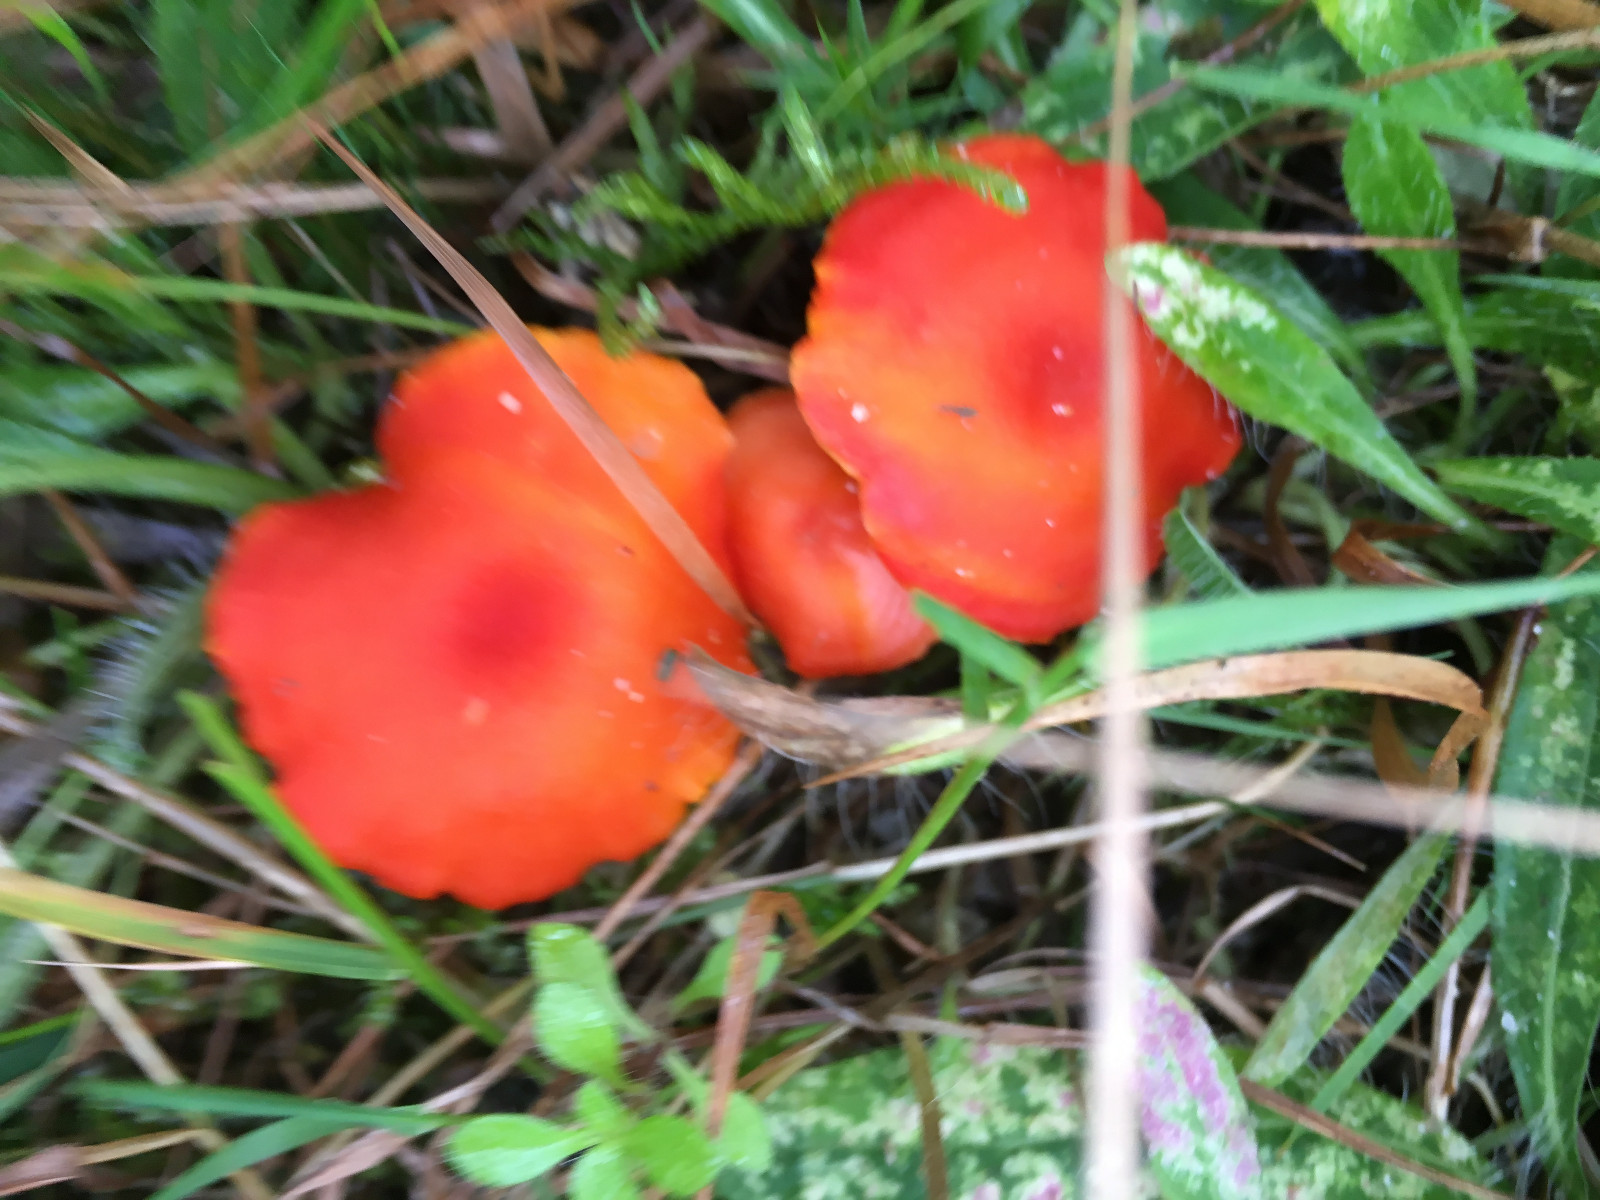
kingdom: Fungi
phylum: Basidiomycota
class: Agaricomycetes
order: Agaricales
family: Hygrophoraceae
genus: Hygrocybe
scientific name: Hygrocybe
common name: vokshat
